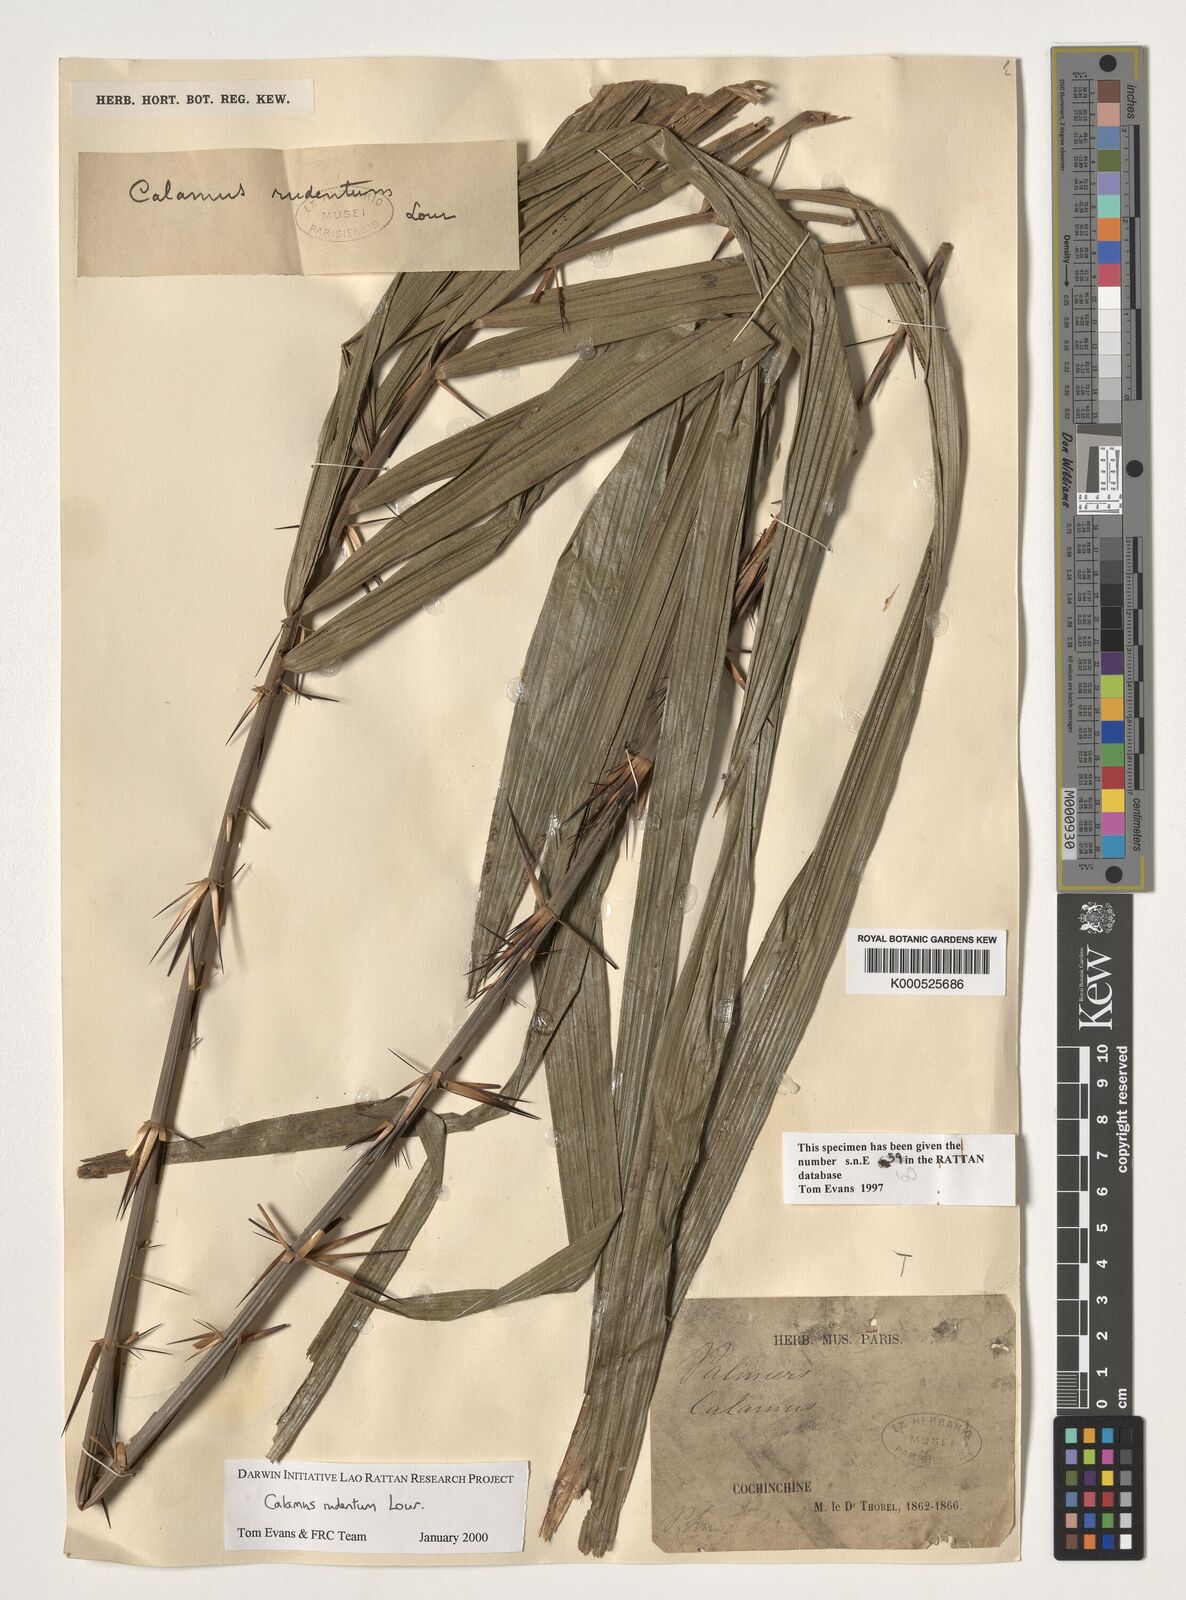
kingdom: Plantae
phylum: Tracheophyta
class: Liliopsida
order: Arecales
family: Arecaceae
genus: Calamus
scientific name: Calamus rudentum
